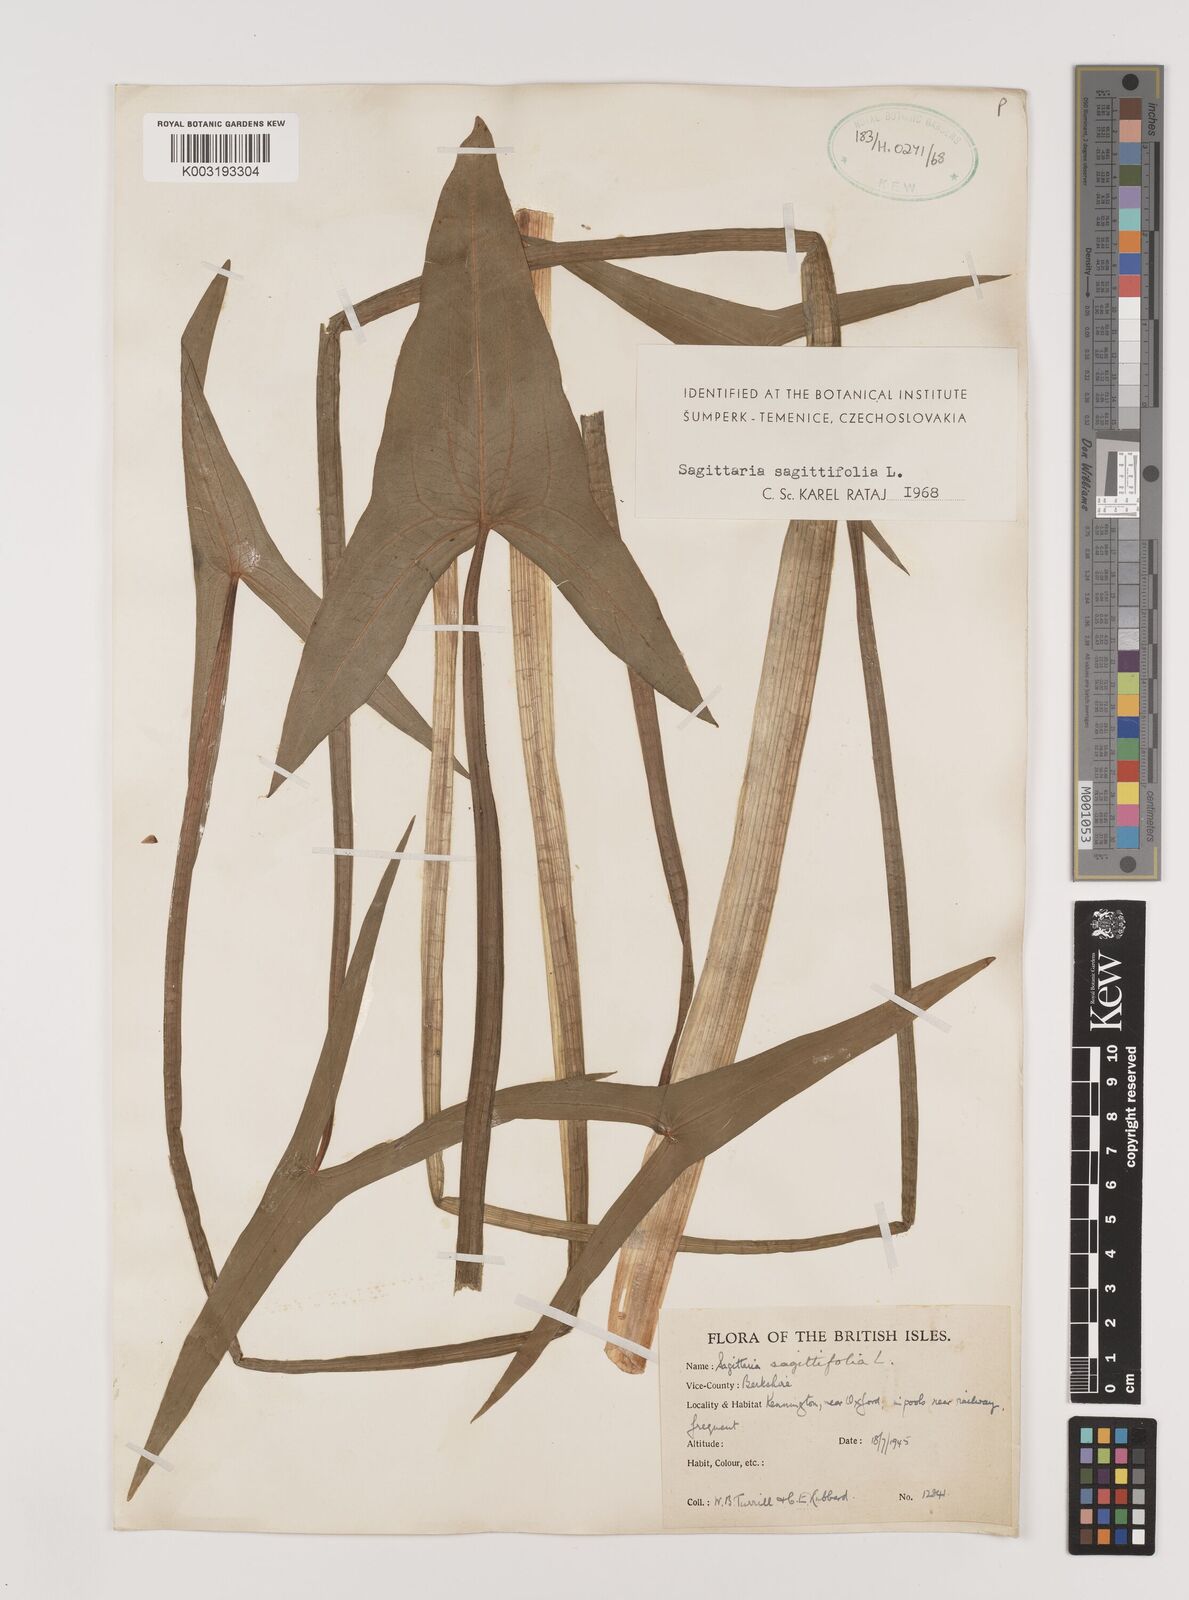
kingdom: Plantae
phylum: Tracheophyta
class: Liliopsida
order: Alismatales
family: Alismataceae
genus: Sagittaria
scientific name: Sagittaria sagittifolia
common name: Arrowhead
